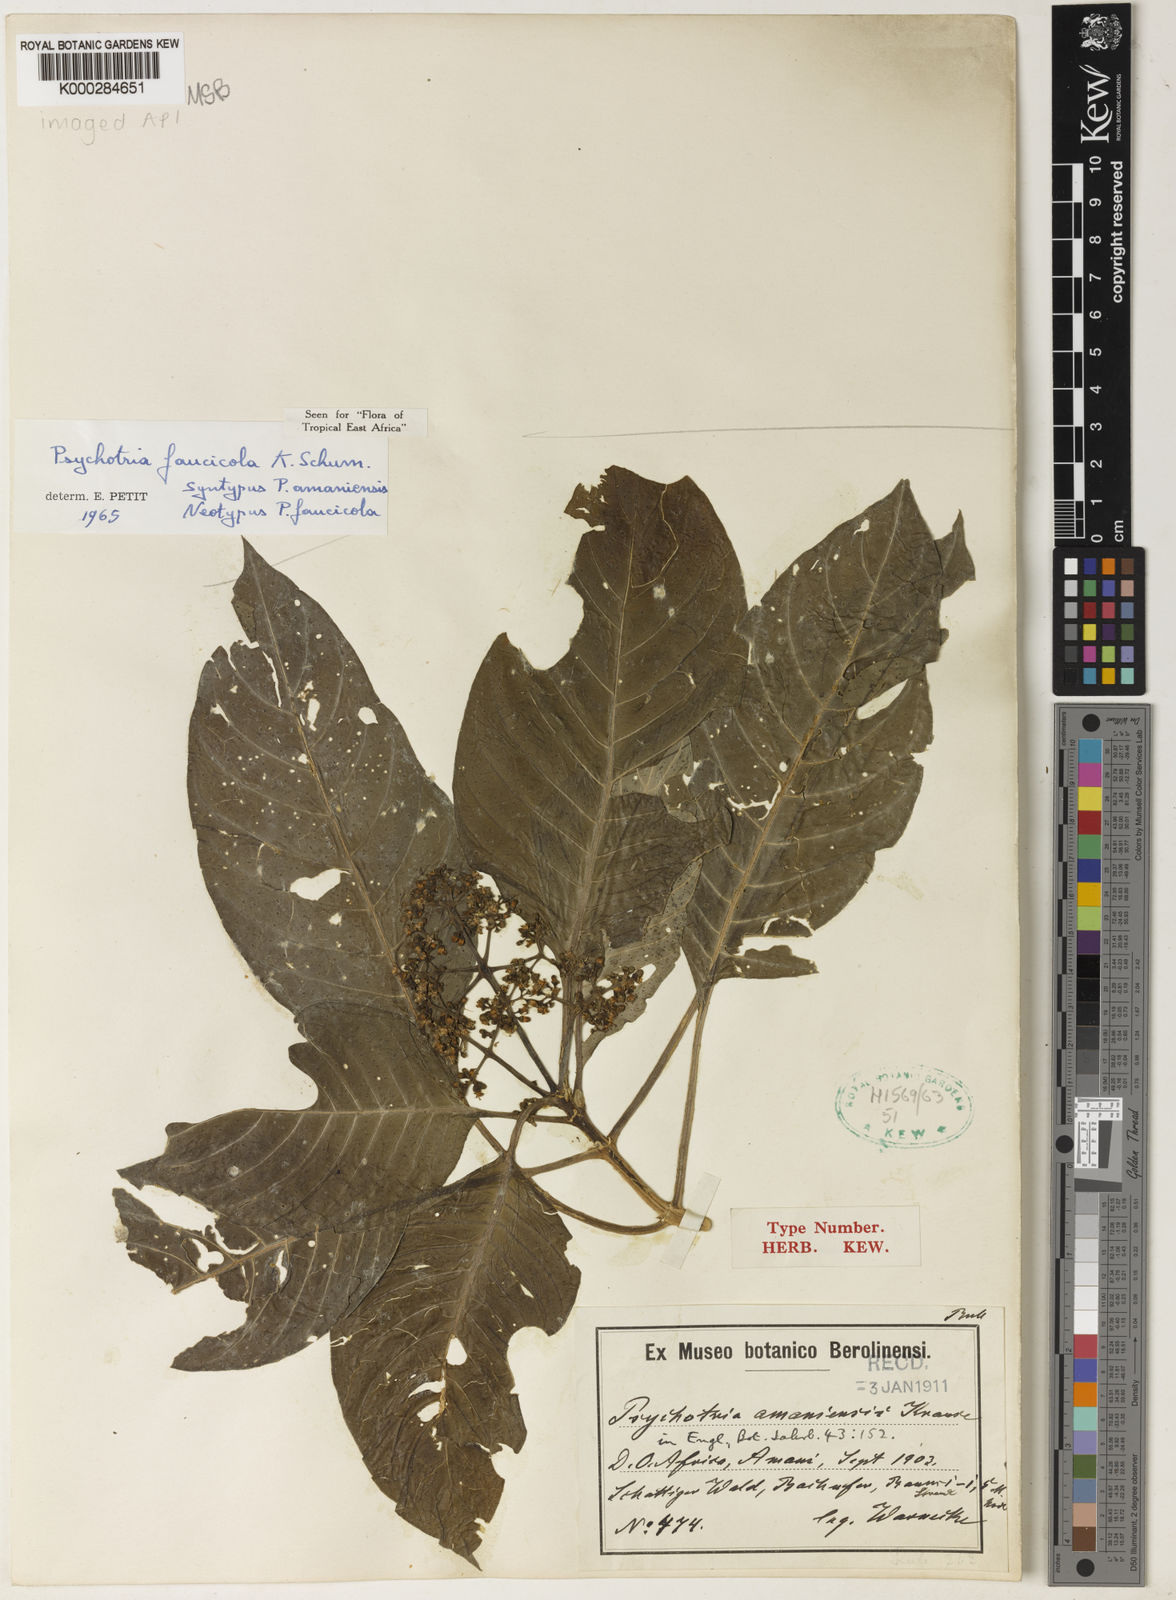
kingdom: Plantae
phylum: Tracheophyta
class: Magnoliopsida
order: Gentianales
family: Rubiaceae
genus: Psychotria
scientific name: Psychotria faucicola
